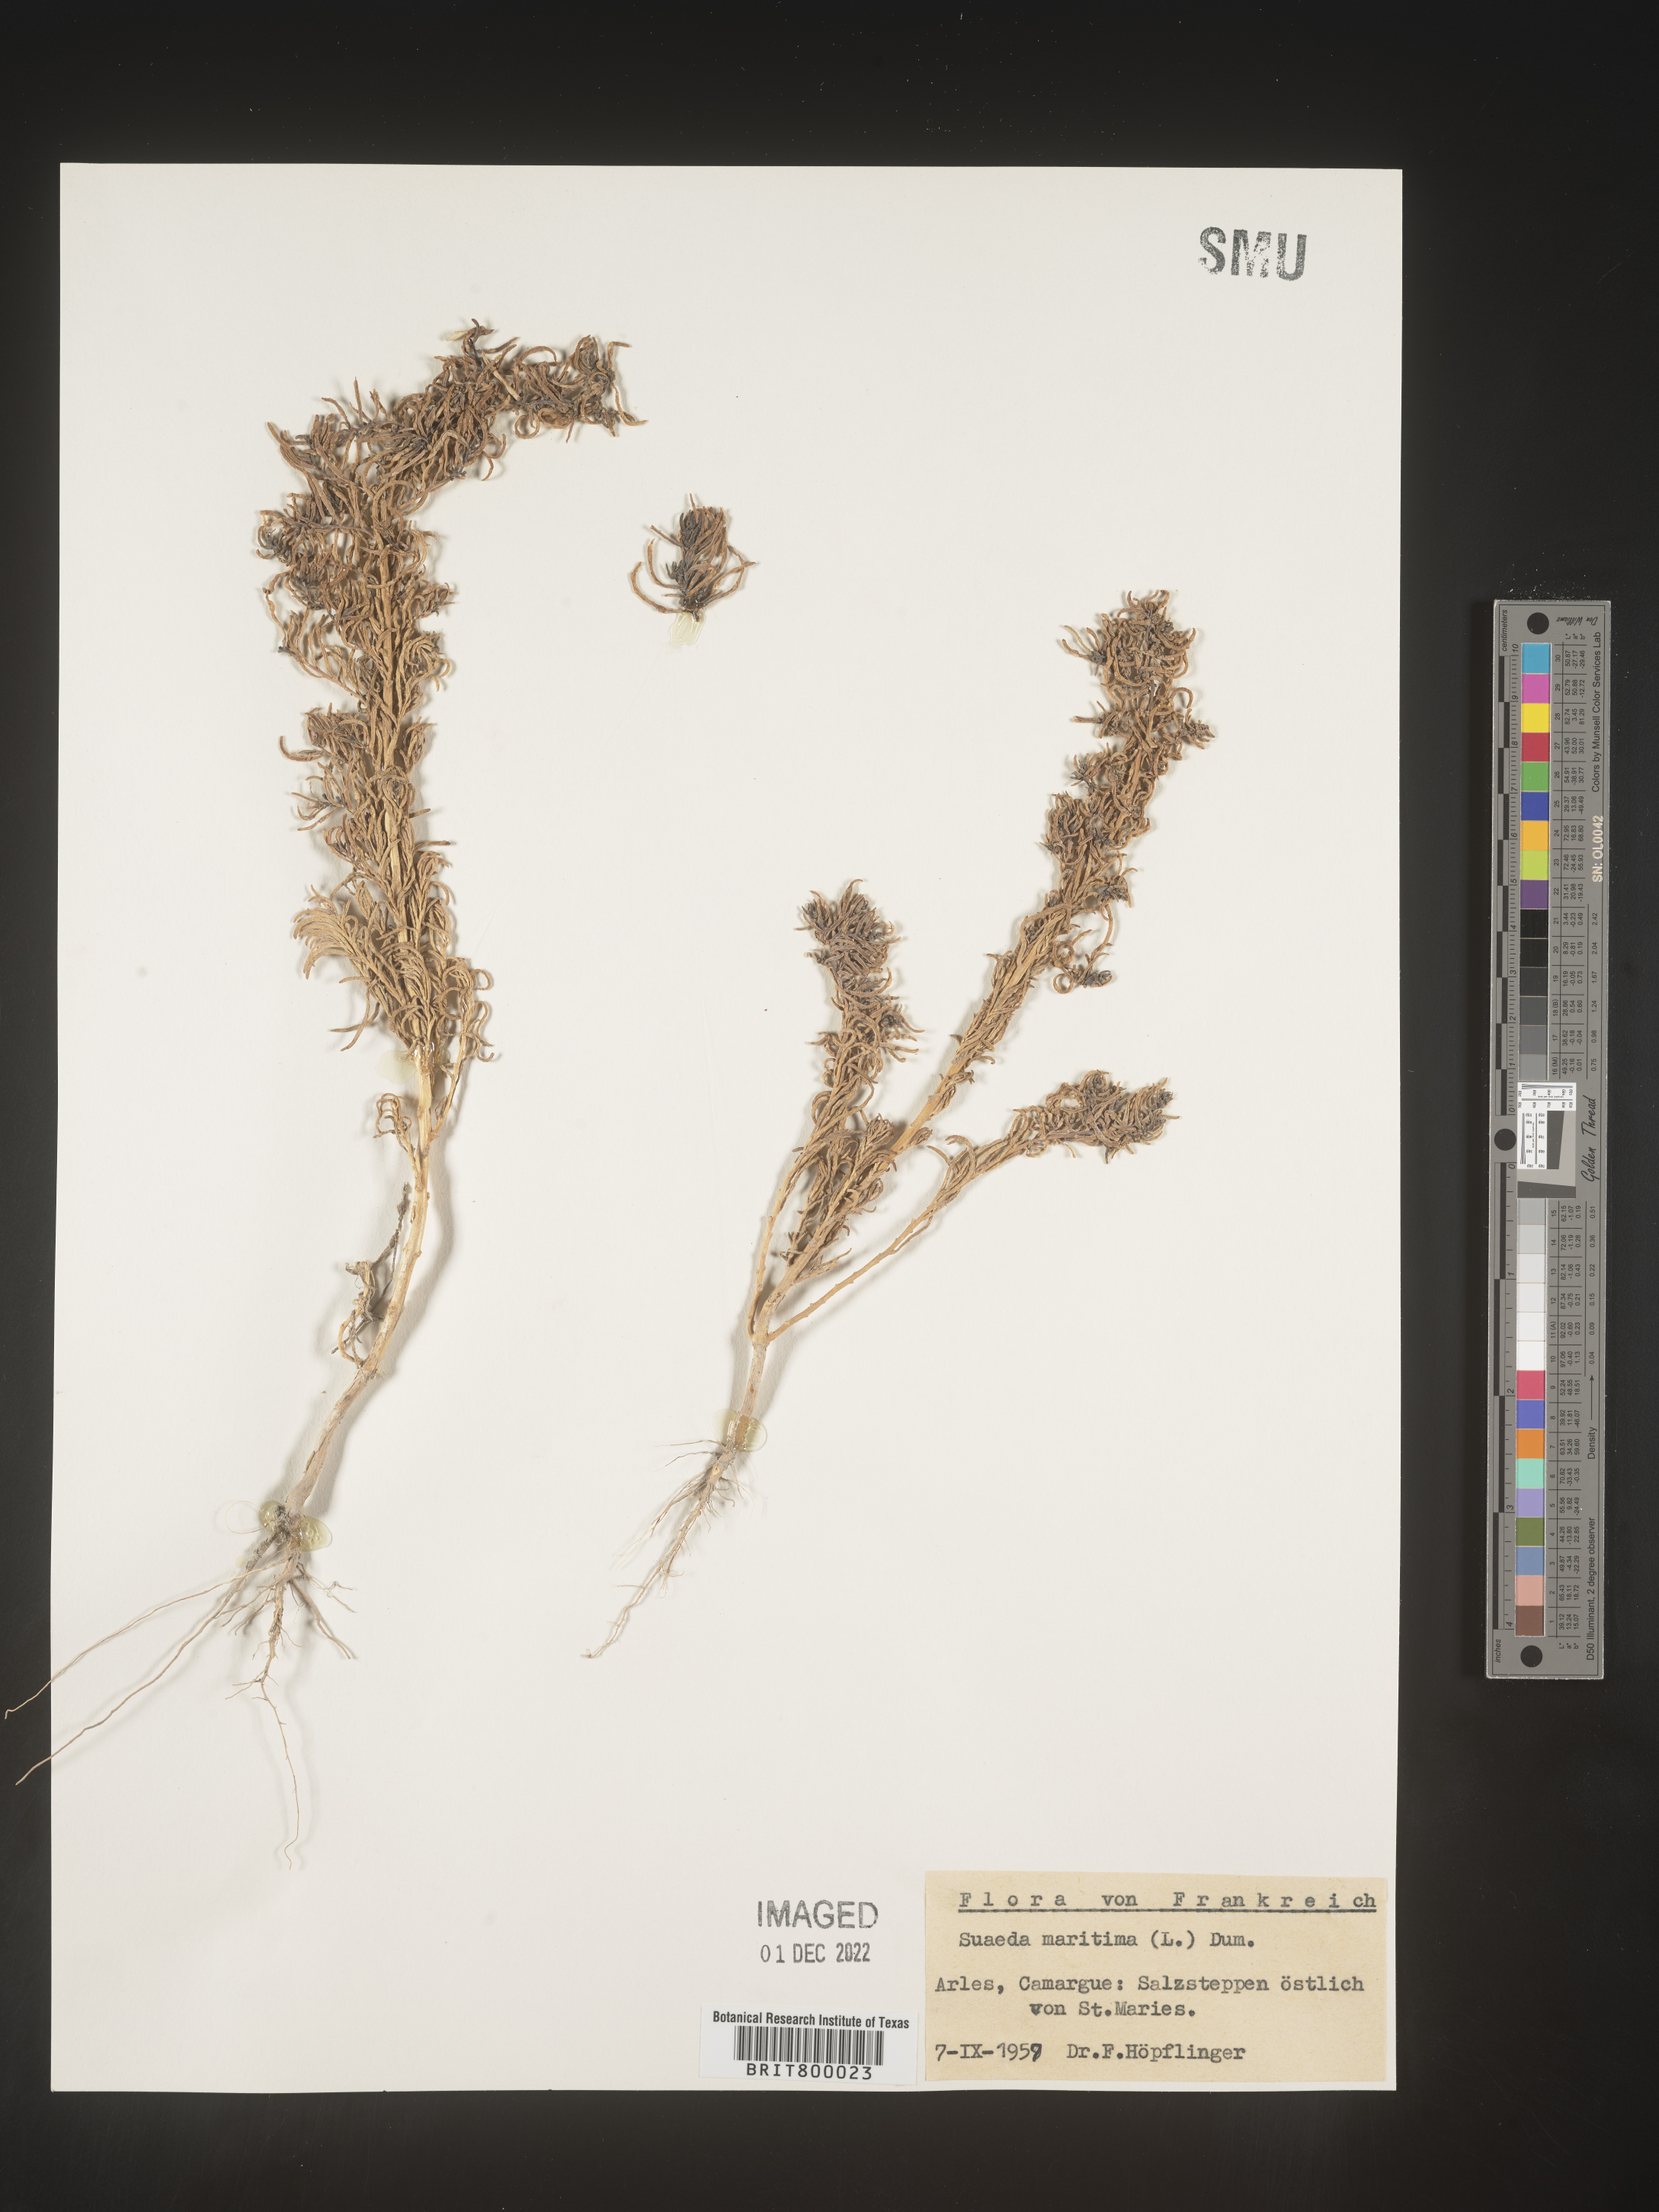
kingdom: Plantae
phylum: Tracheophyta
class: Magnoliopsida
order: Caryophyllales
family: Amaranthaceae
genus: Suaeda
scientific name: Suaeda
